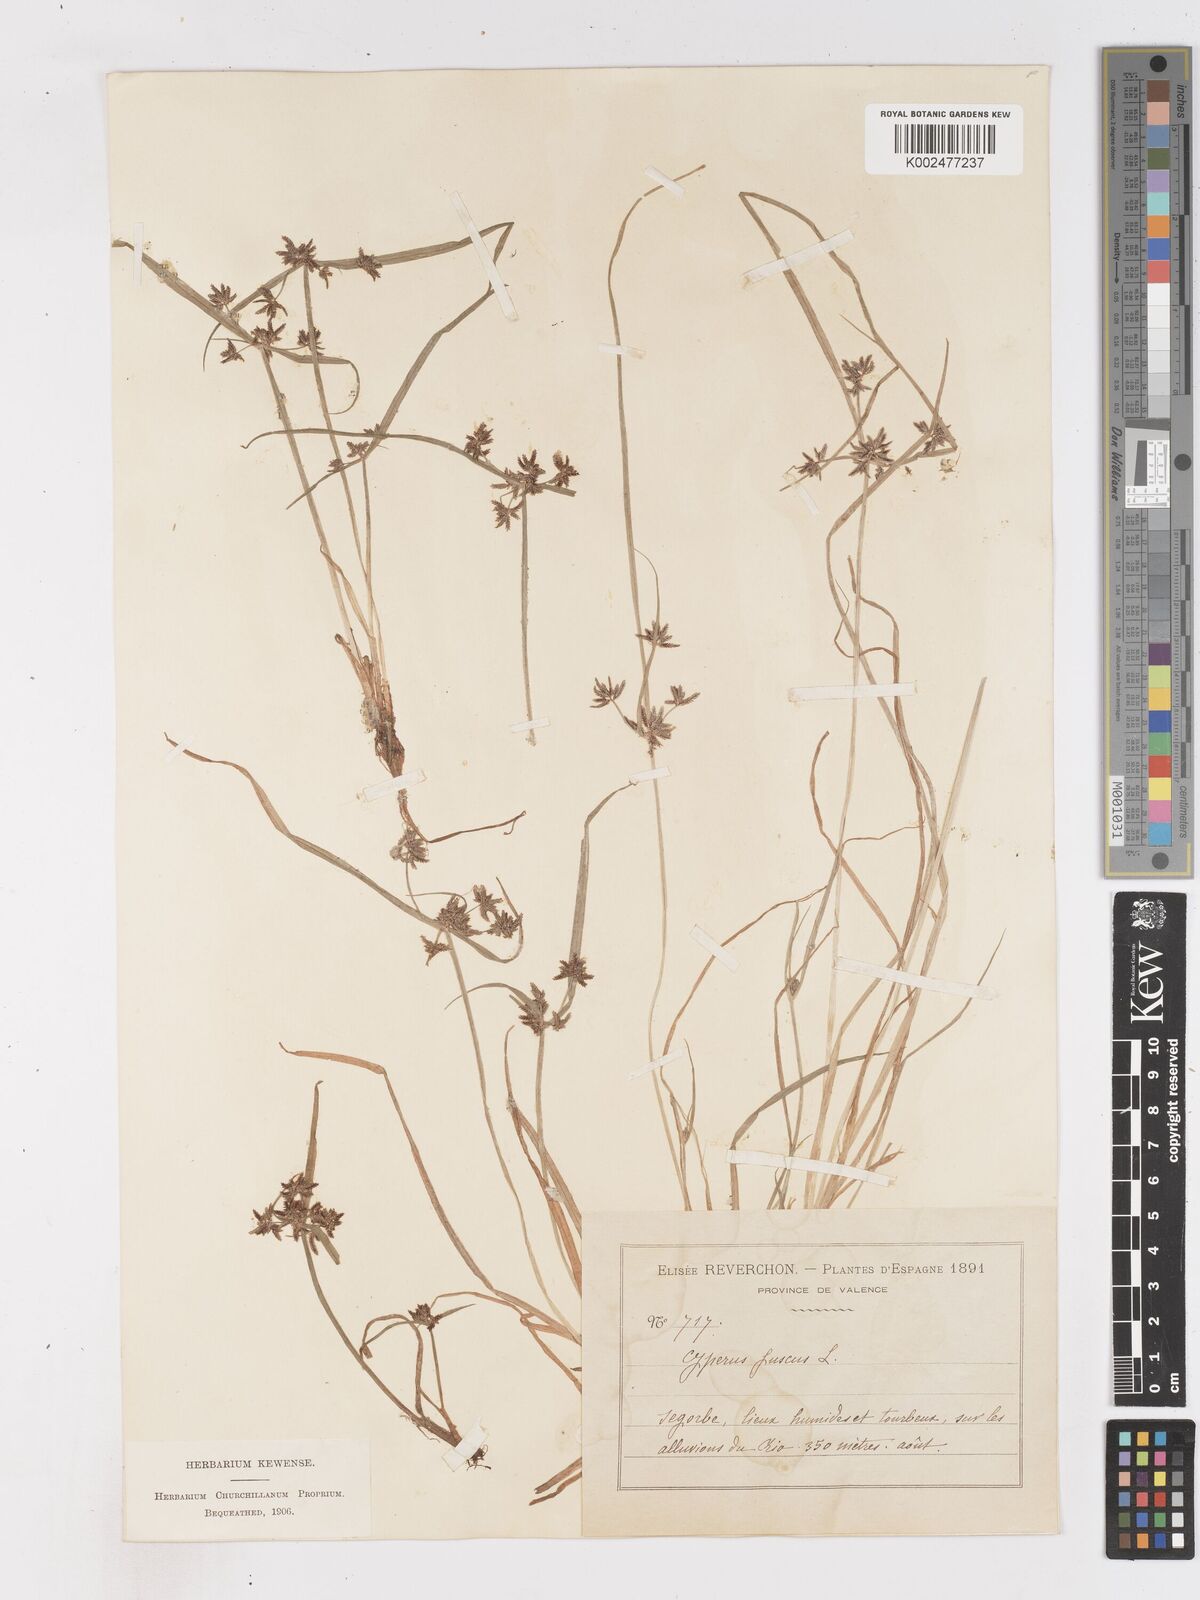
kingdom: Plantae
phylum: Tracheophyta
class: Liliopsida
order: Poales
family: Cyperaceae
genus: Cyperus
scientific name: Cyperus fuscus
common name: Brown galingale
